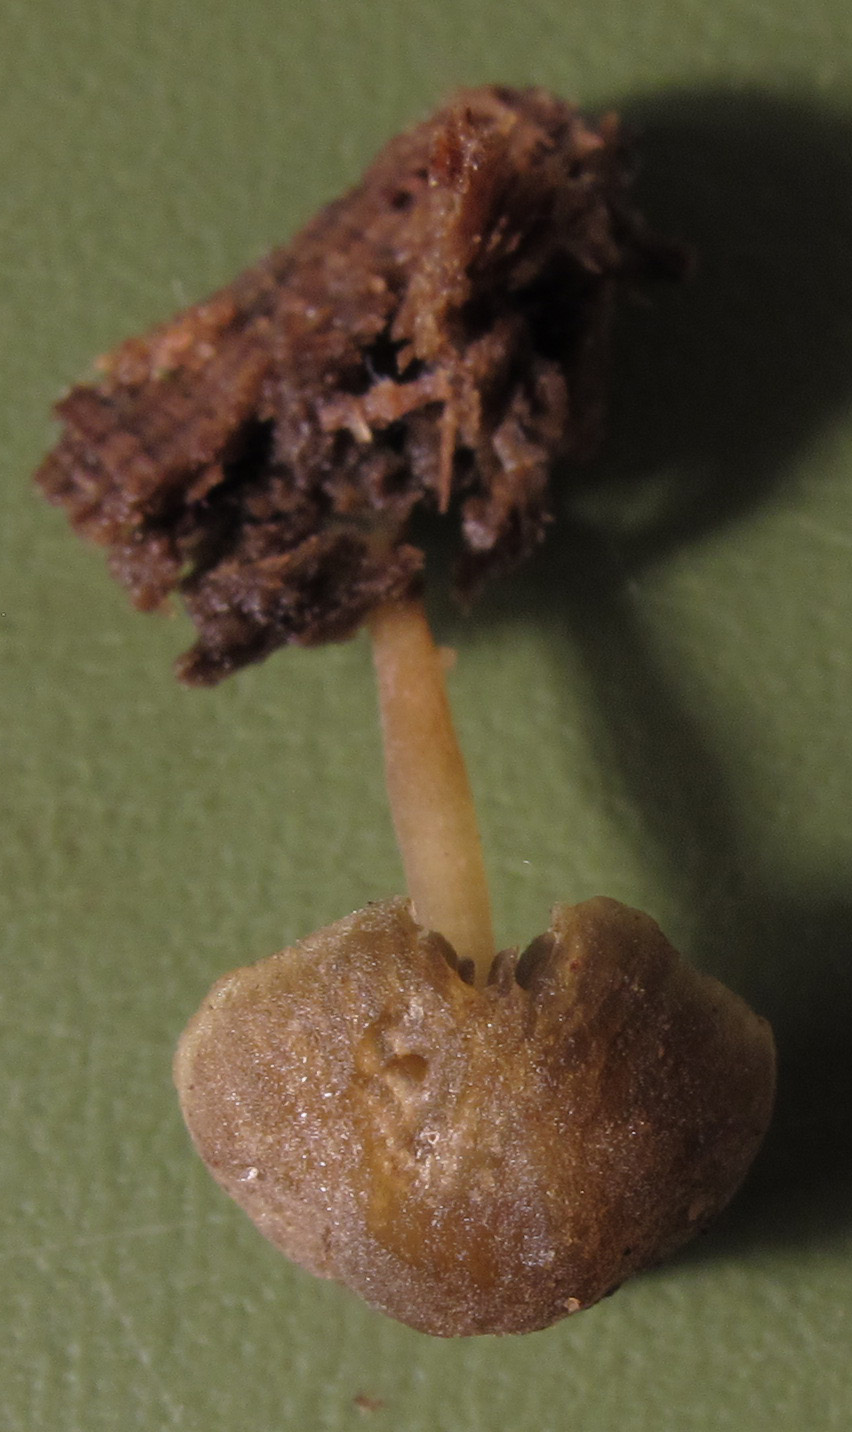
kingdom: Fungi
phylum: Basidiomycota
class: Agaricomycetes
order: Agaricales
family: Crepidotaceae
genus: Simocybe
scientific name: Simocybe centunculus
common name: enlig skyggehat
